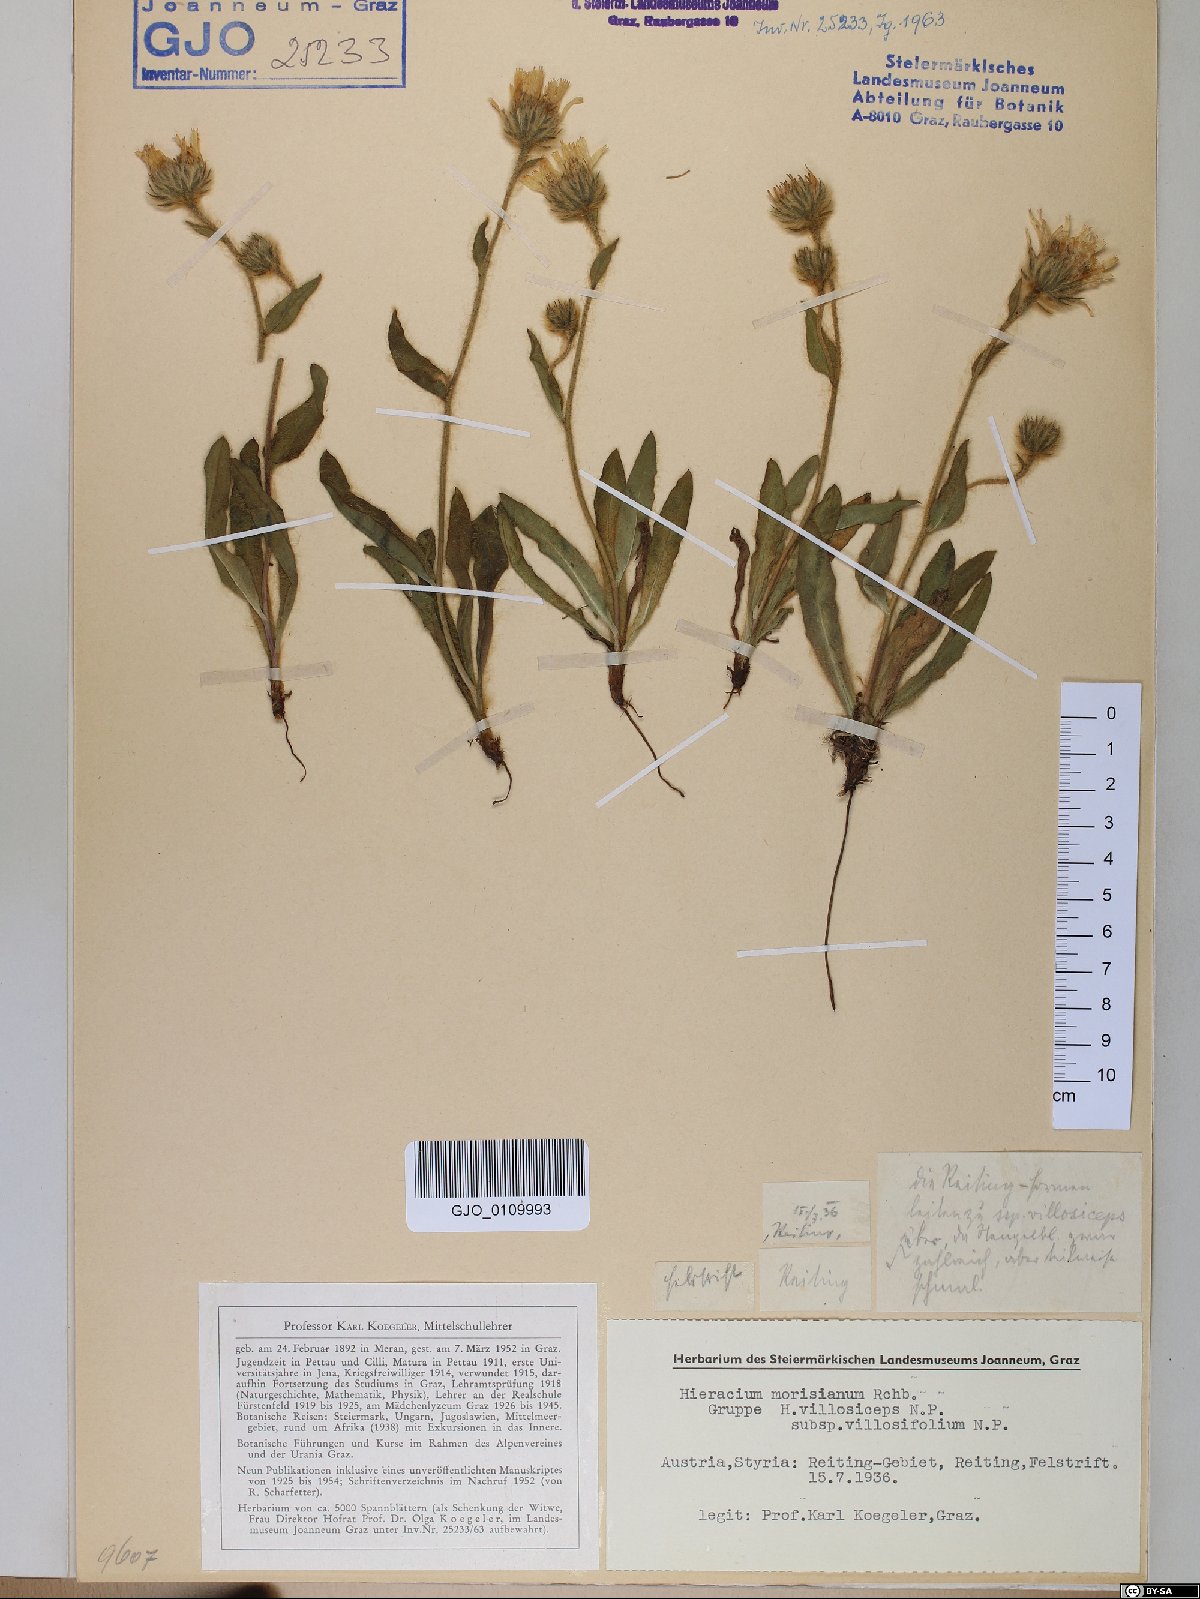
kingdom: Plantae
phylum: Tracheophyta
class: Magnoliopsida
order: Asterales
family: Asteraceae
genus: Hieracium
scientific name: Hieracium pilosum
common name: Fimbriate-pitted hawkweed
